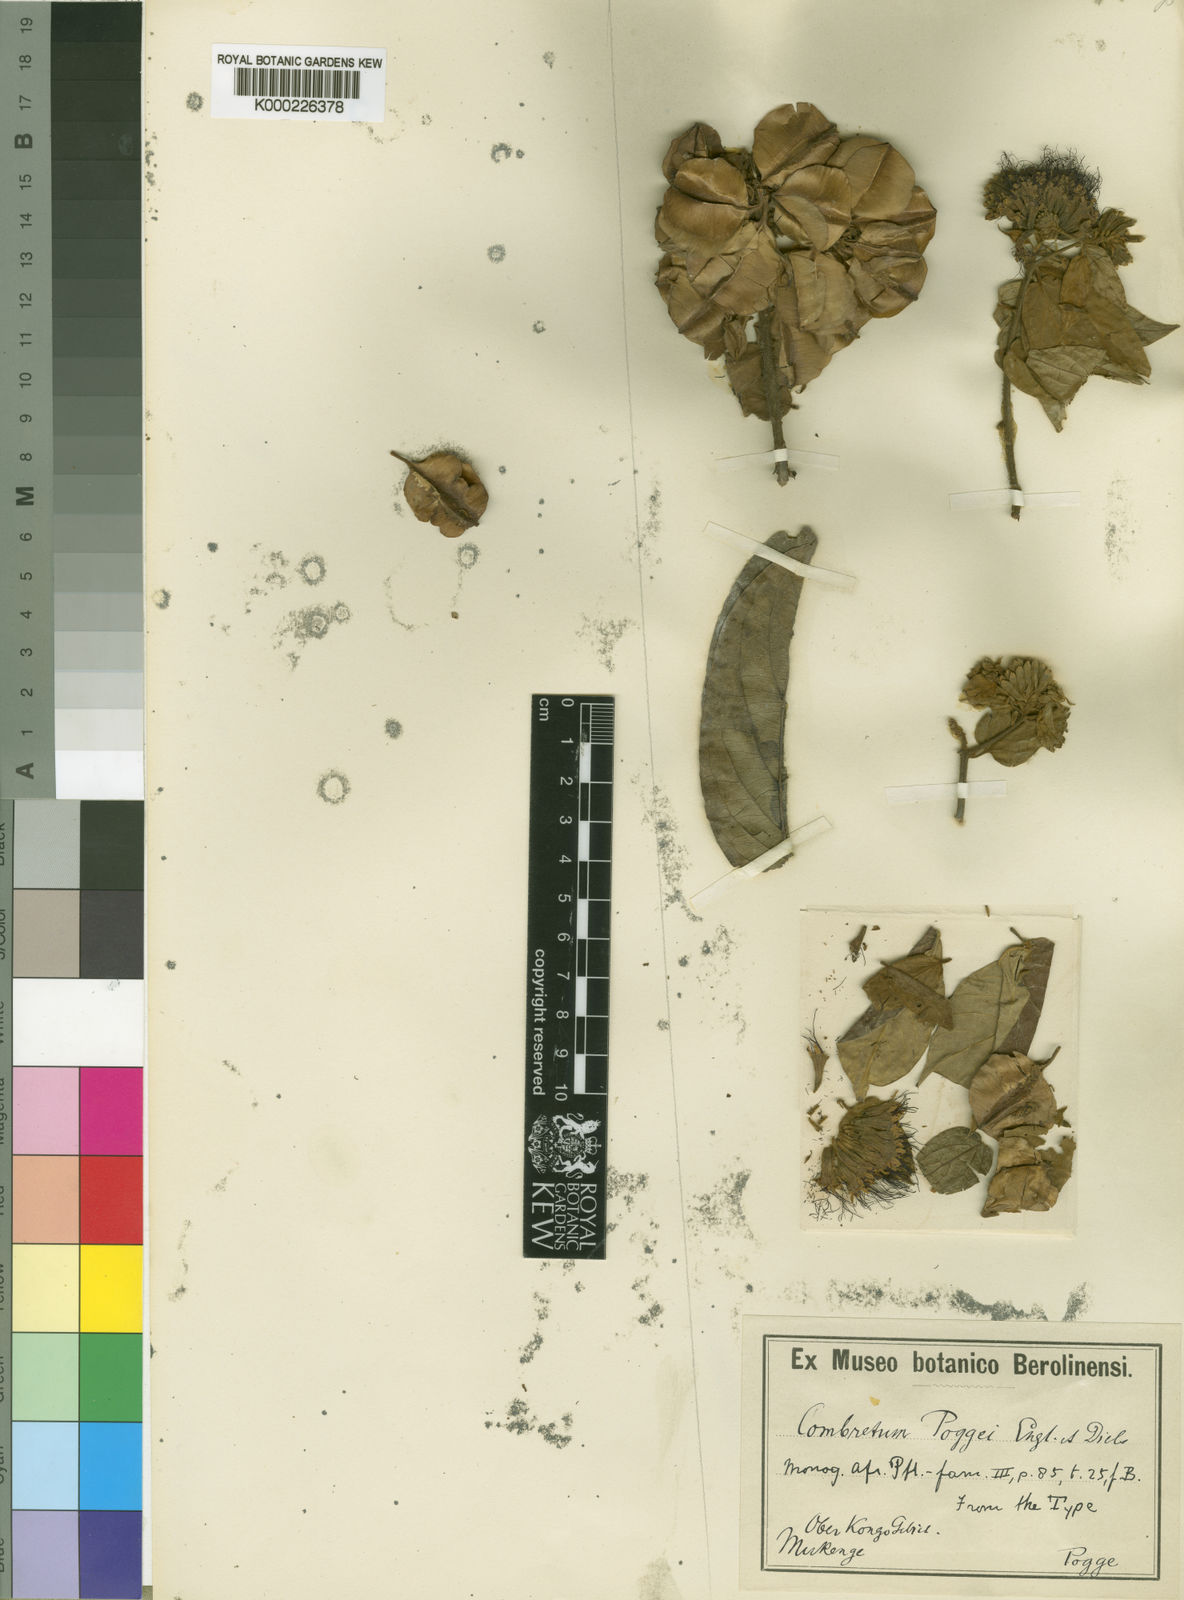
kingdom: Plantae
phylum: Tracheophyta
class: Magnoliopsida
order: Myrtales
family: Combretaceae
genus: Combretum
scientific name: Combretum hensii
